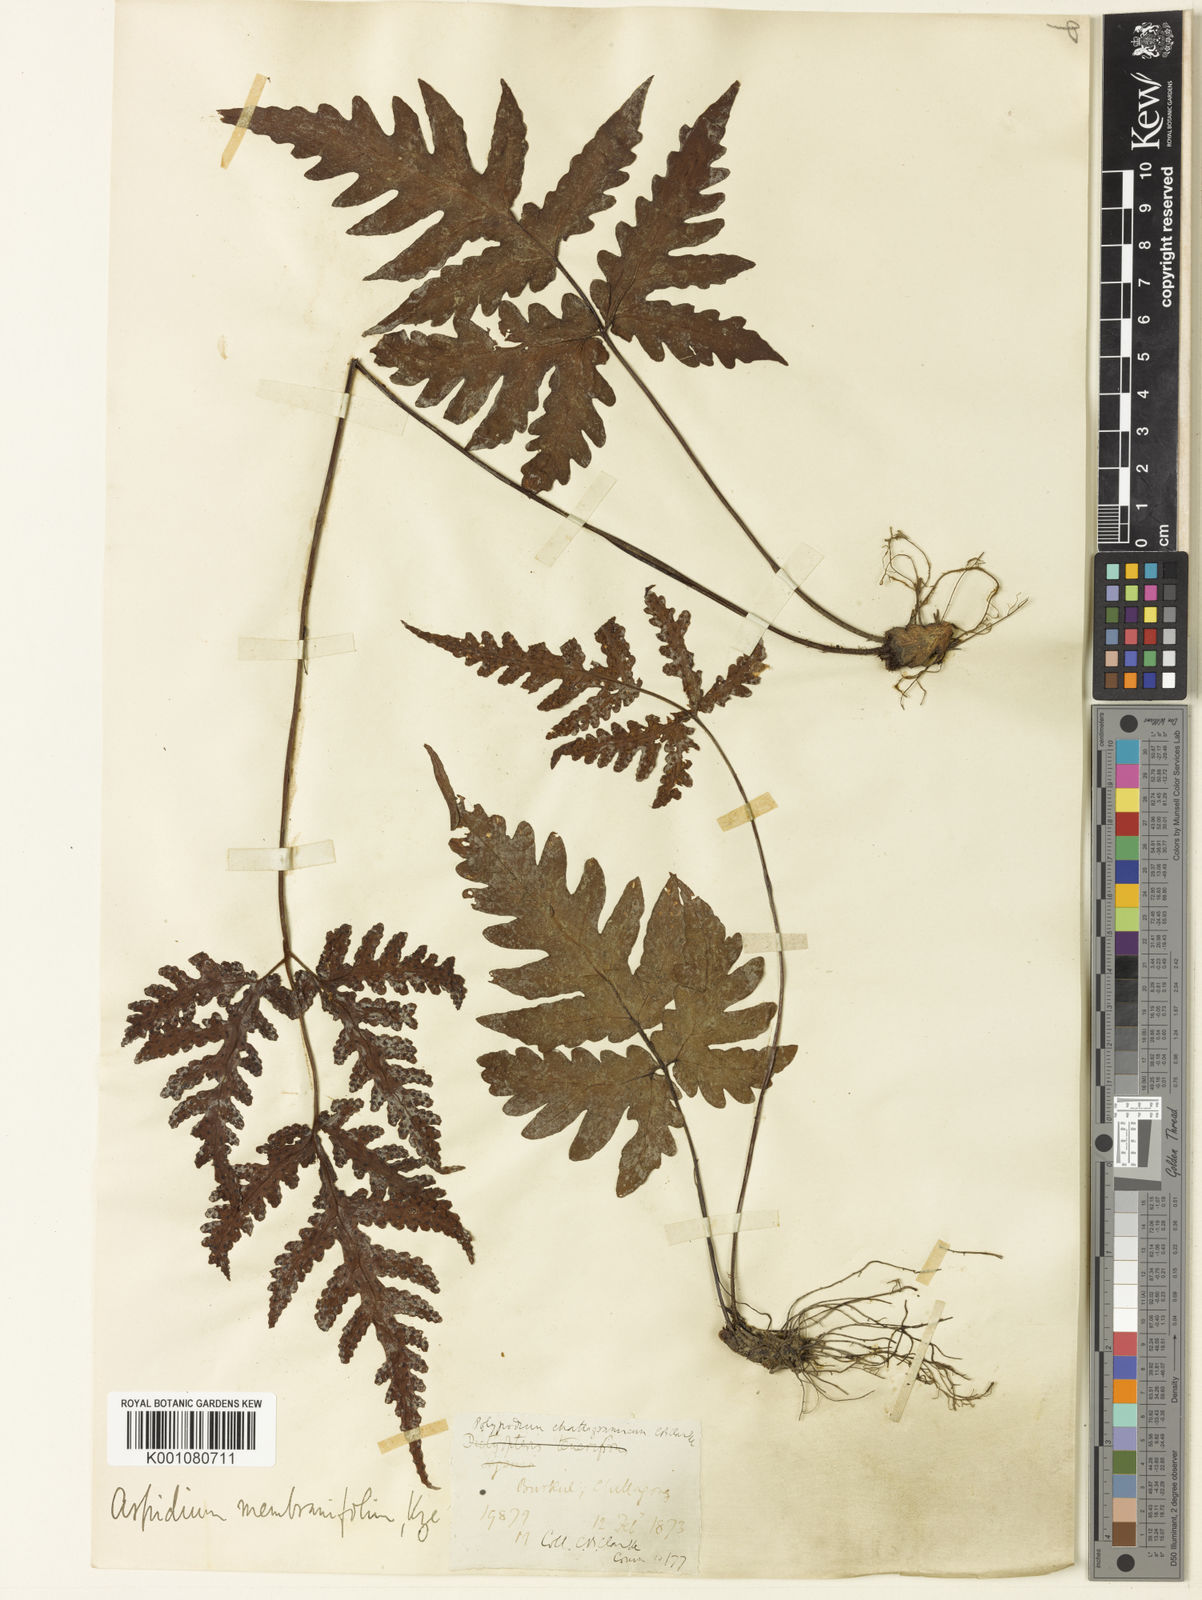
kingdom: Plantae
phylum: Tracheophyta
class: Polypodiopsida
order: Polypodiales
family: Tectariaceae
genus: Tectaria
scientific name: Tectaria chattagrammica
